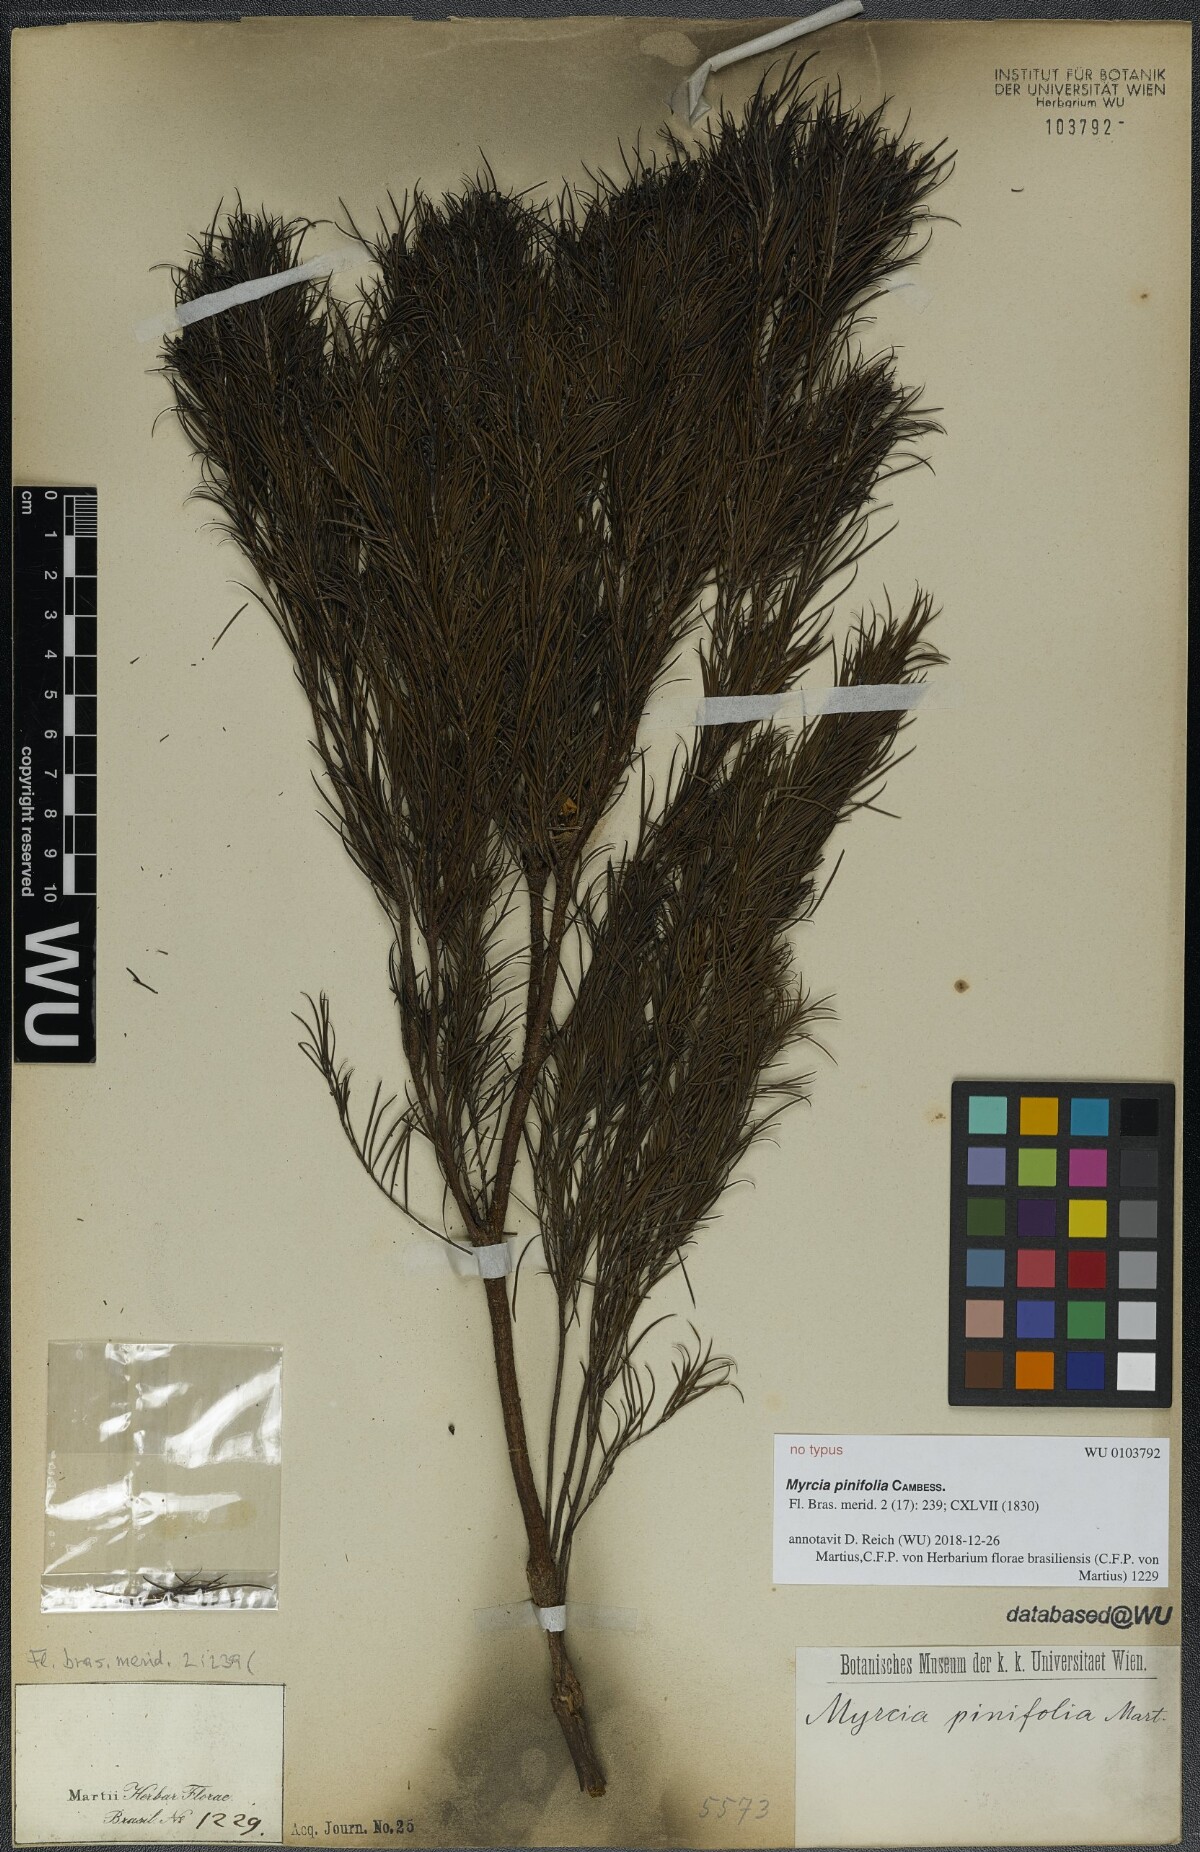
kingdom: Plantae
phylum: Tracheophyta
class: Magnoliopsida
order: Myrtales
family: Myrtaceae
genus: Myrcia
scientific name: Myrcia pinifolia
